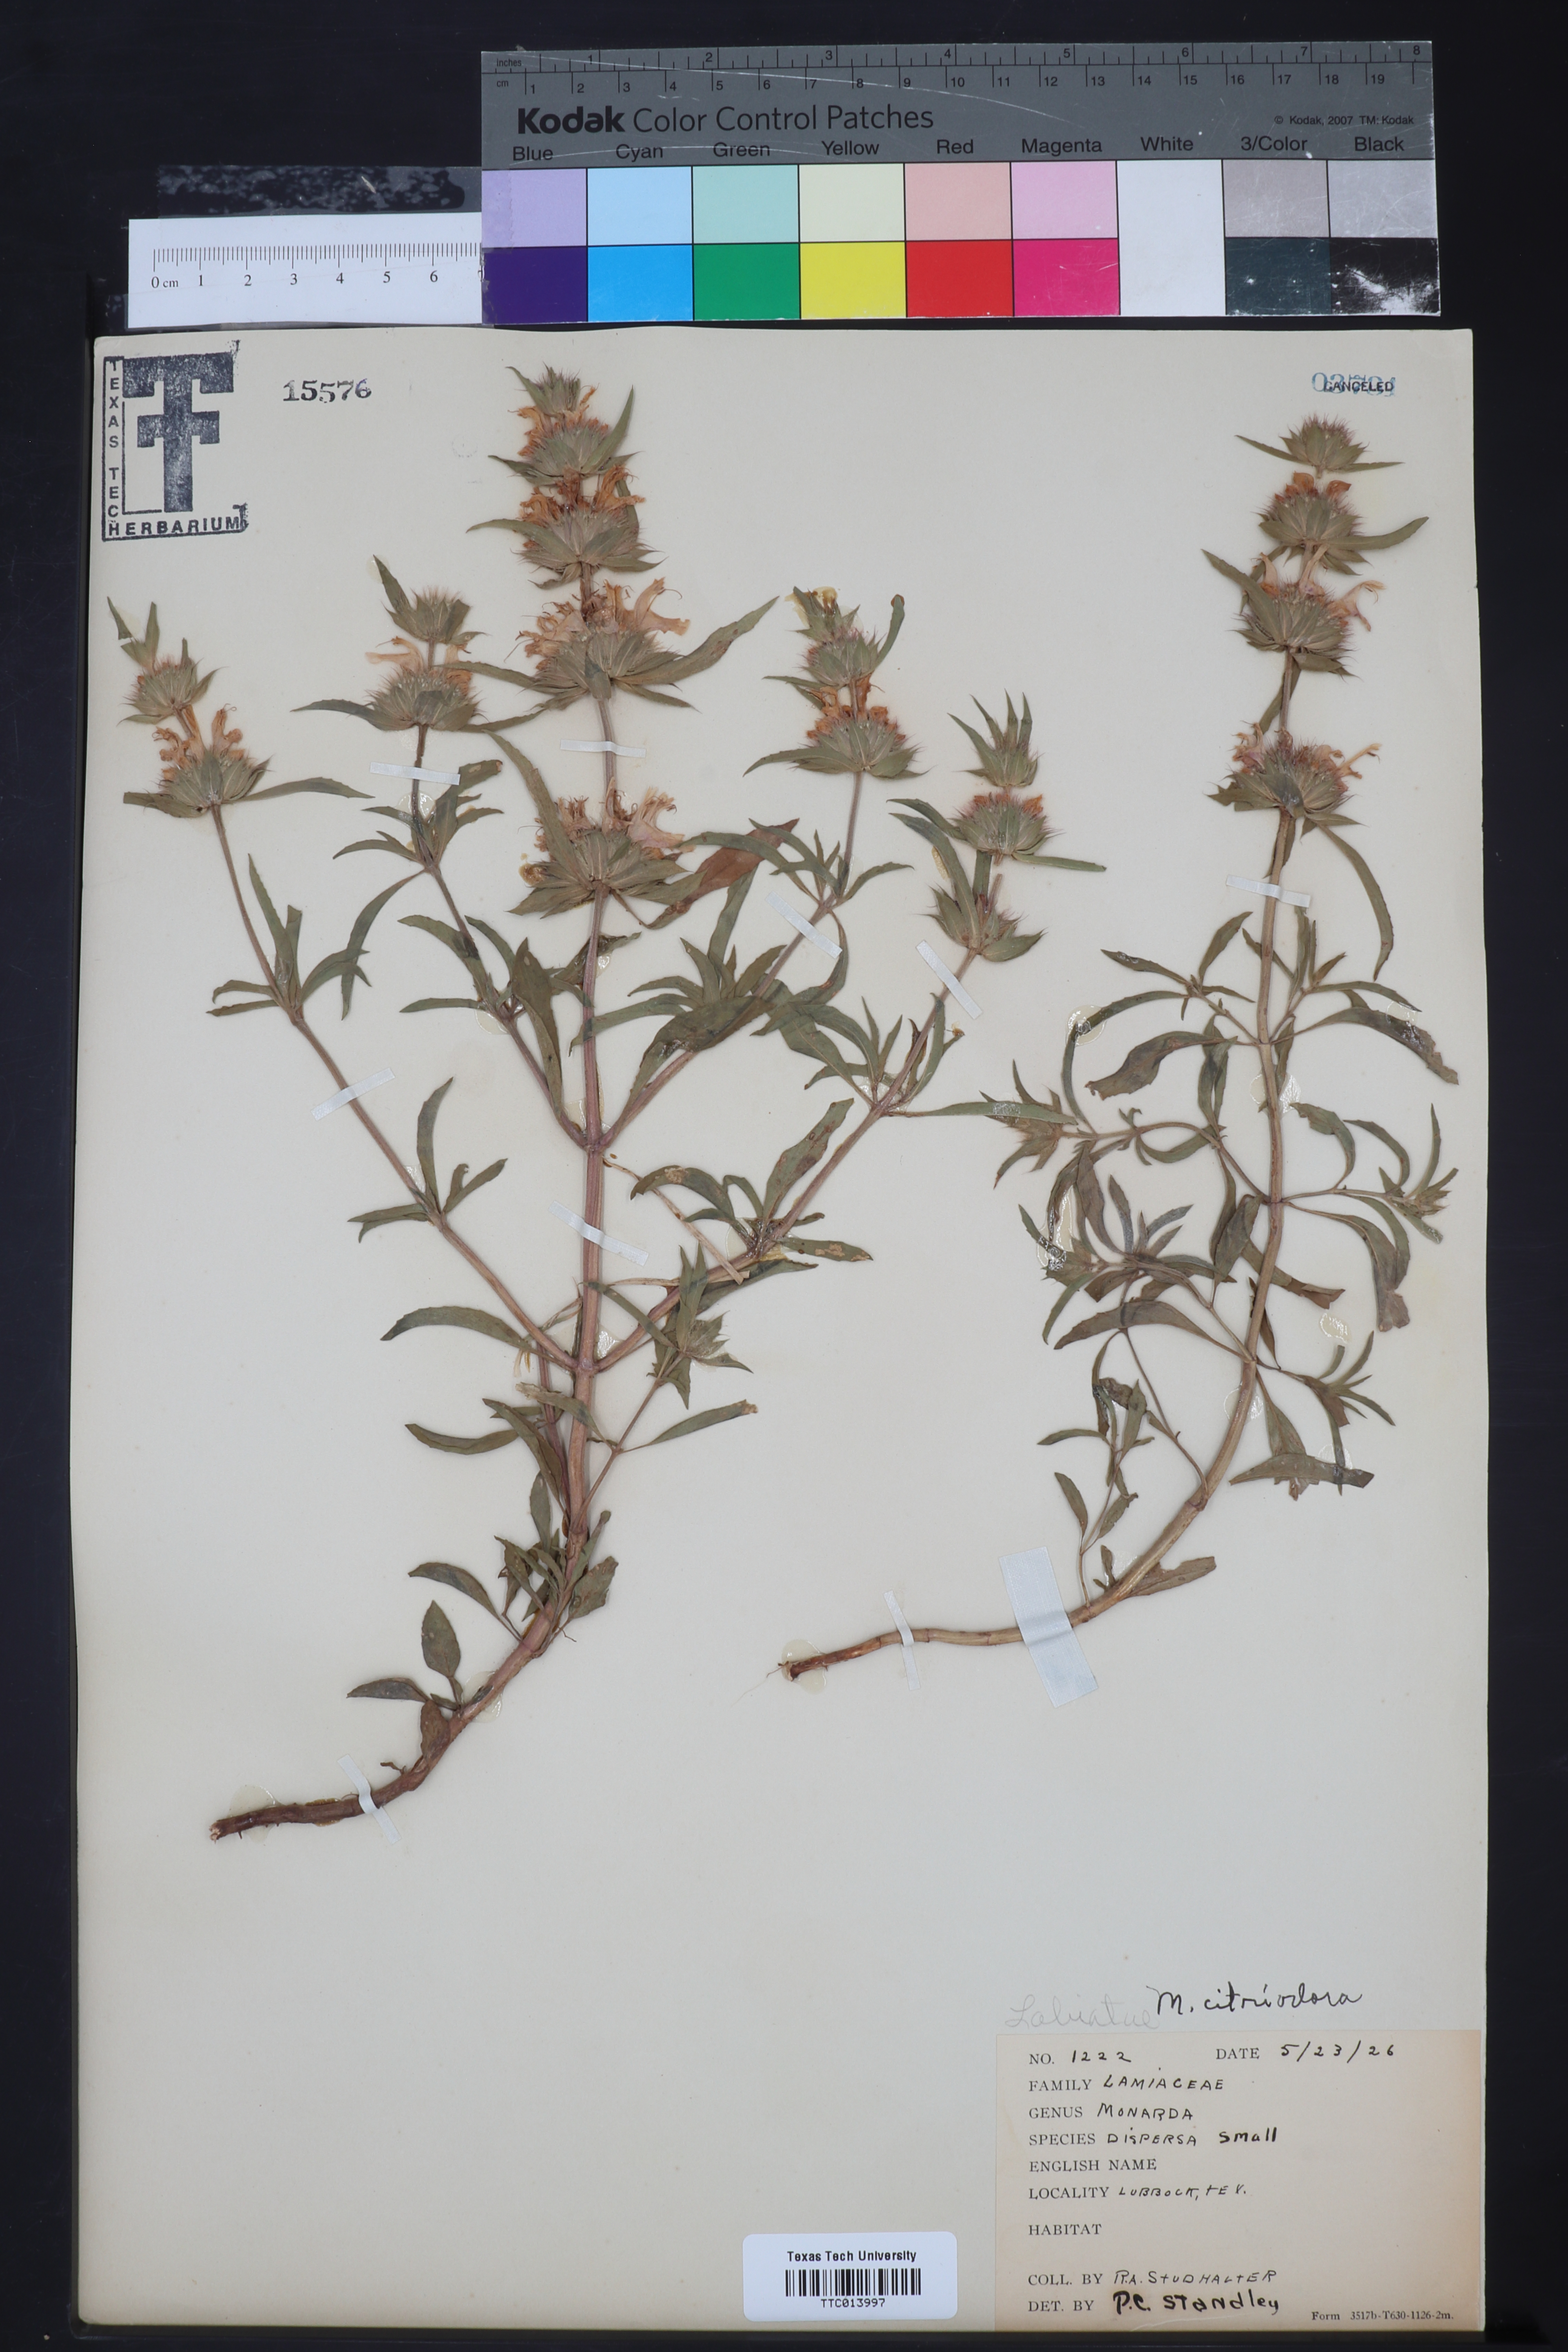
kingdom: Plantae
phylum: Tracheophyta
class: Magnoliopsida
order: Lamiales
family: Lamiaceae
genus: Monarda
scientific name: Monarda citriodora
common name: Lemon beebalm
